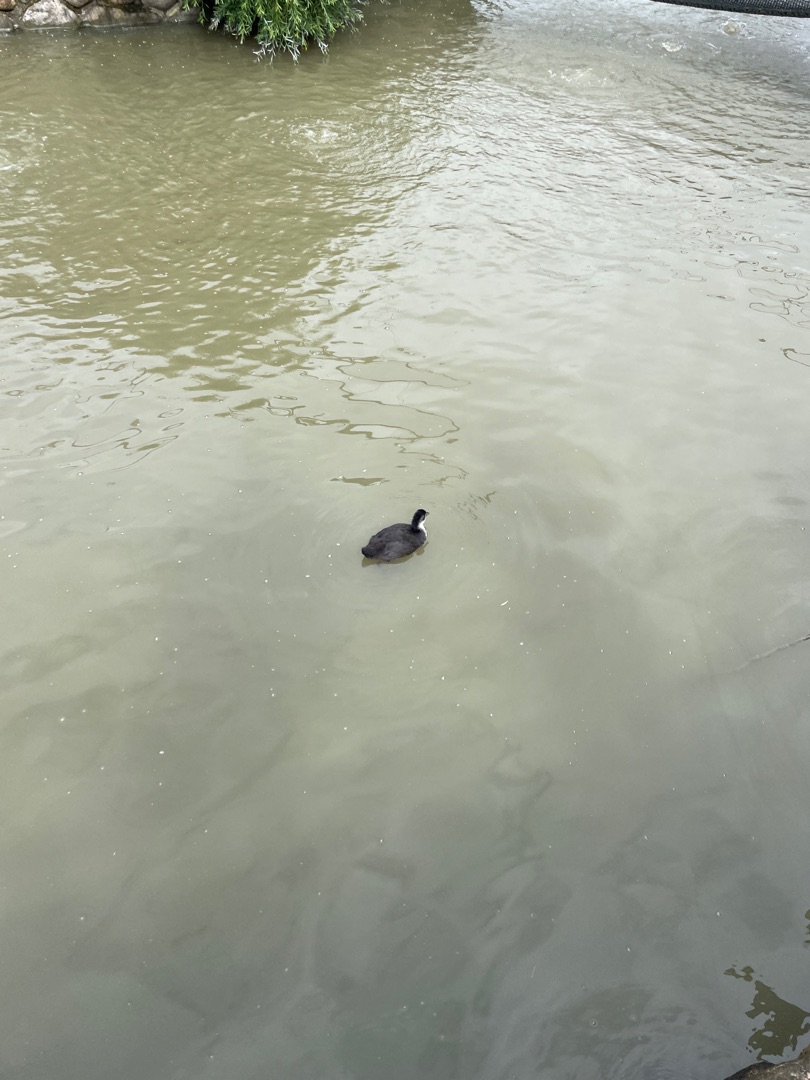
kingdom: Animalia
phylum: Chordata
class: Aves
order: Gruiformes
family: Rallidae
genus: Fulica
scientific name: Fulica atra
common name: Blishøne
